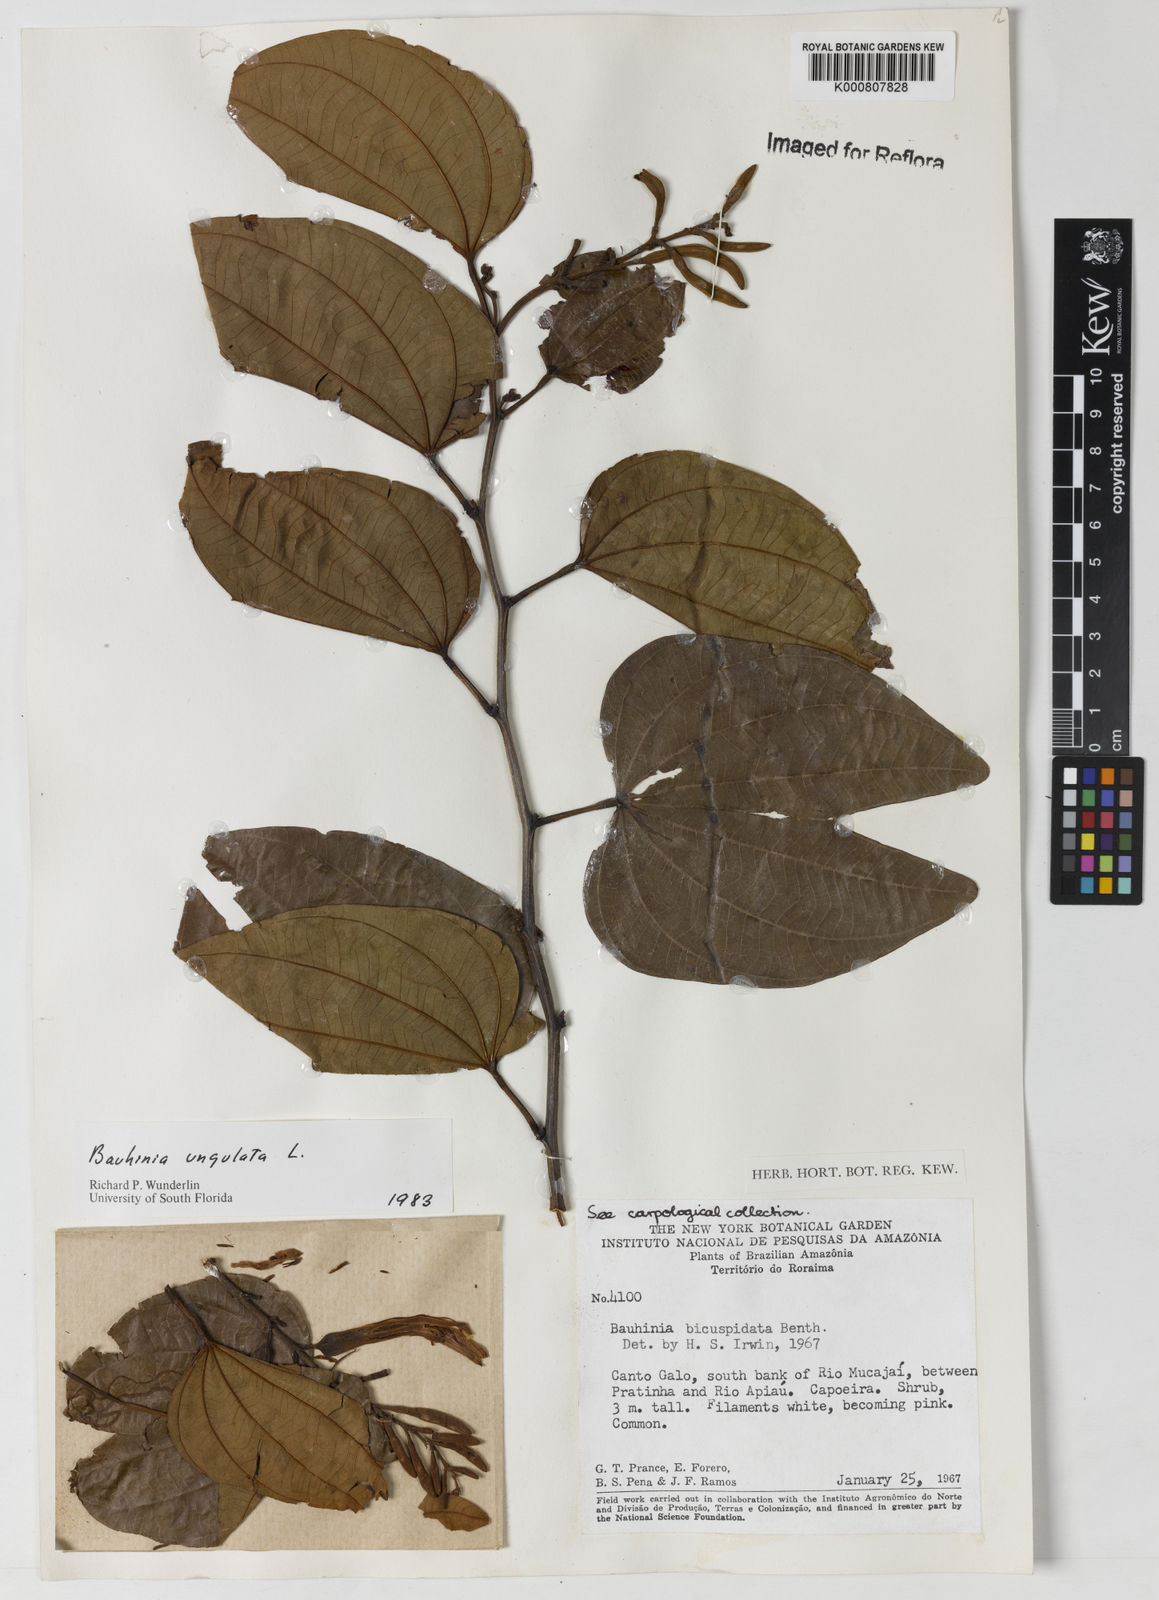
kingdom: Plantae
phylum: Tracheophyta
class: Magnoliopsida
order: Fabales
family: Fabaceae
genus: Bauhinia
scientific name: Bauhinia ungulata
